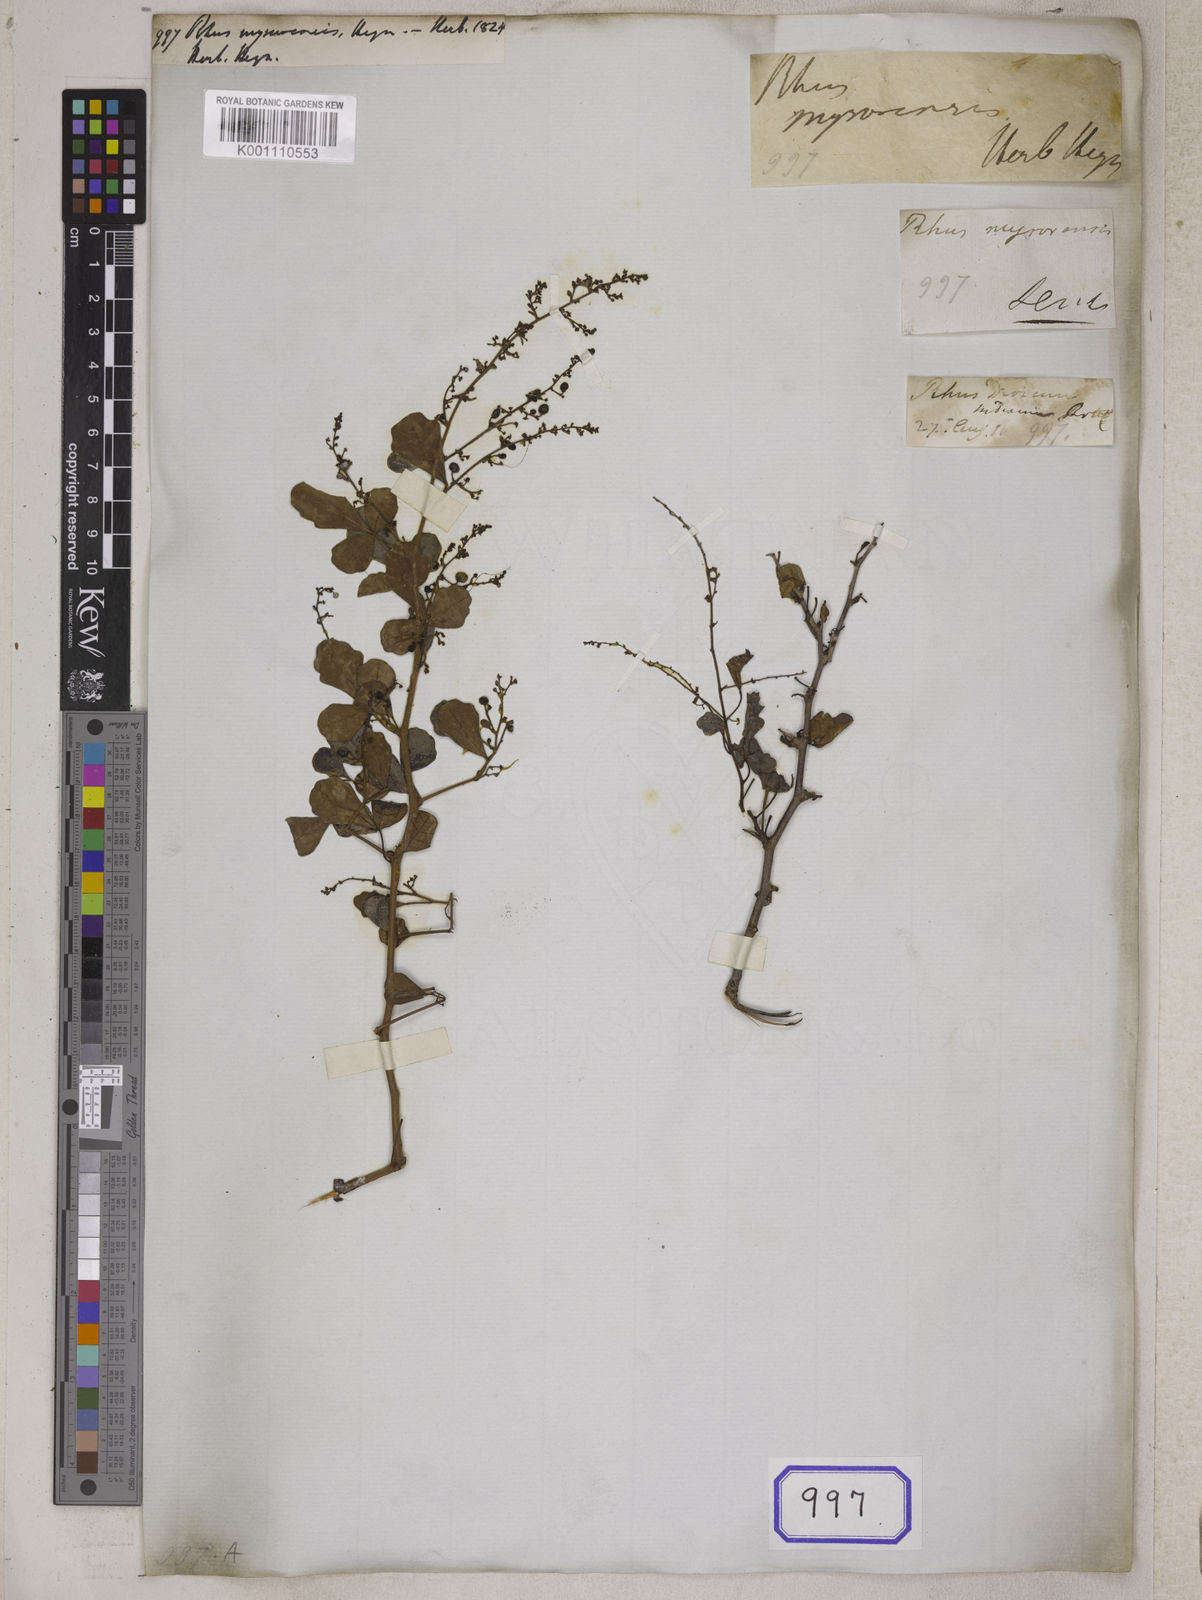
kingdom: Plantae
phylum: Tracheophyta
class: Magnoliopsida
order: Sapindales
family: Anacardiaceae
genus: Rhus
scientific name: Rhus
